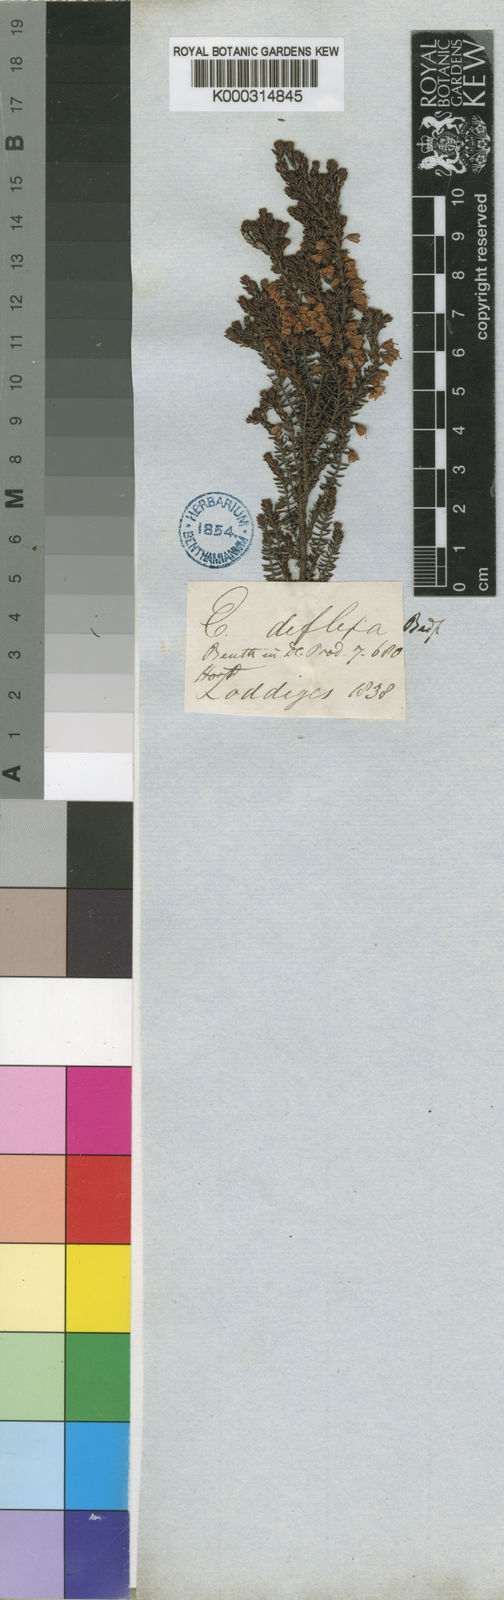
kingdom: Plantae
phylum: Tracheophyta
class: Magnoliopsida
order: Ericales
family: Ericaceae
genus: Erica
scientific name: Erica deflexa
